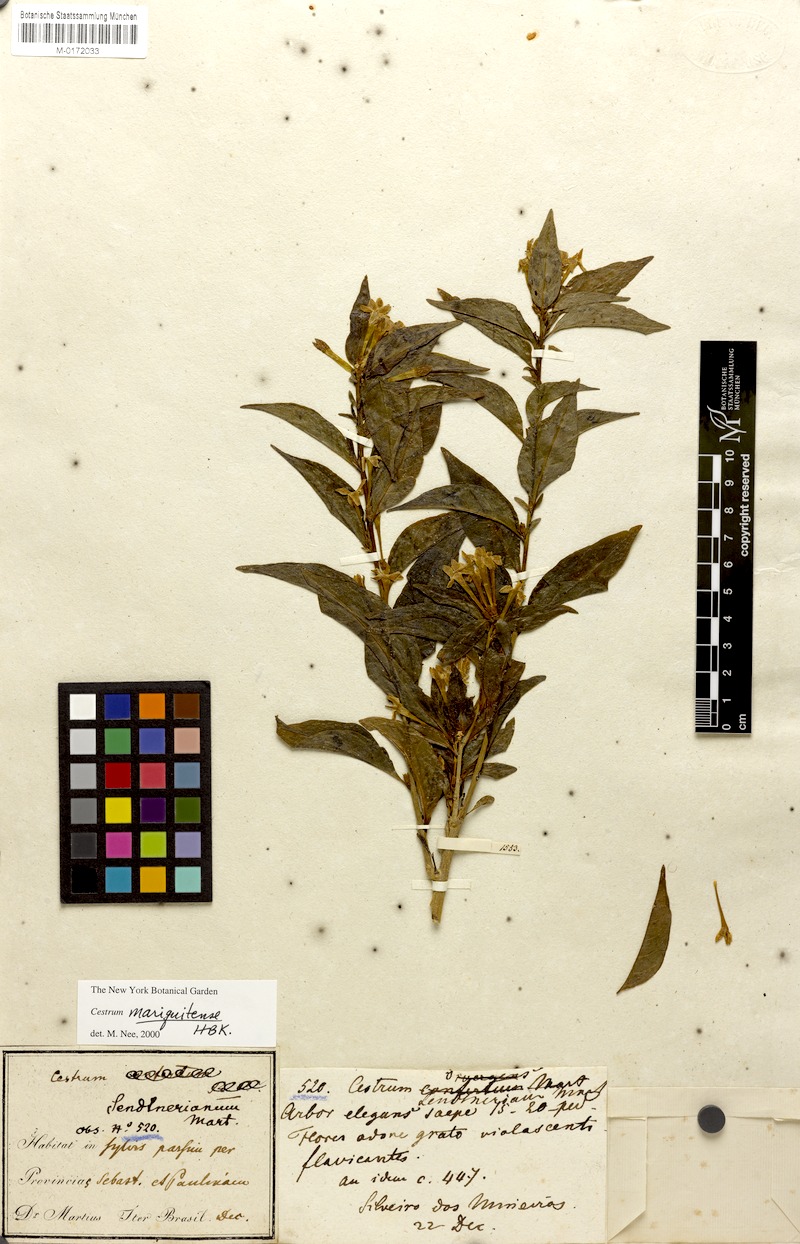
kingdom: Plantae
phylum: Tracheophyta
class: Magnoliopsida
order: Solanales
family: Solanaceae
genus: Cestrum
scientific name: Cestrum mariquitense
